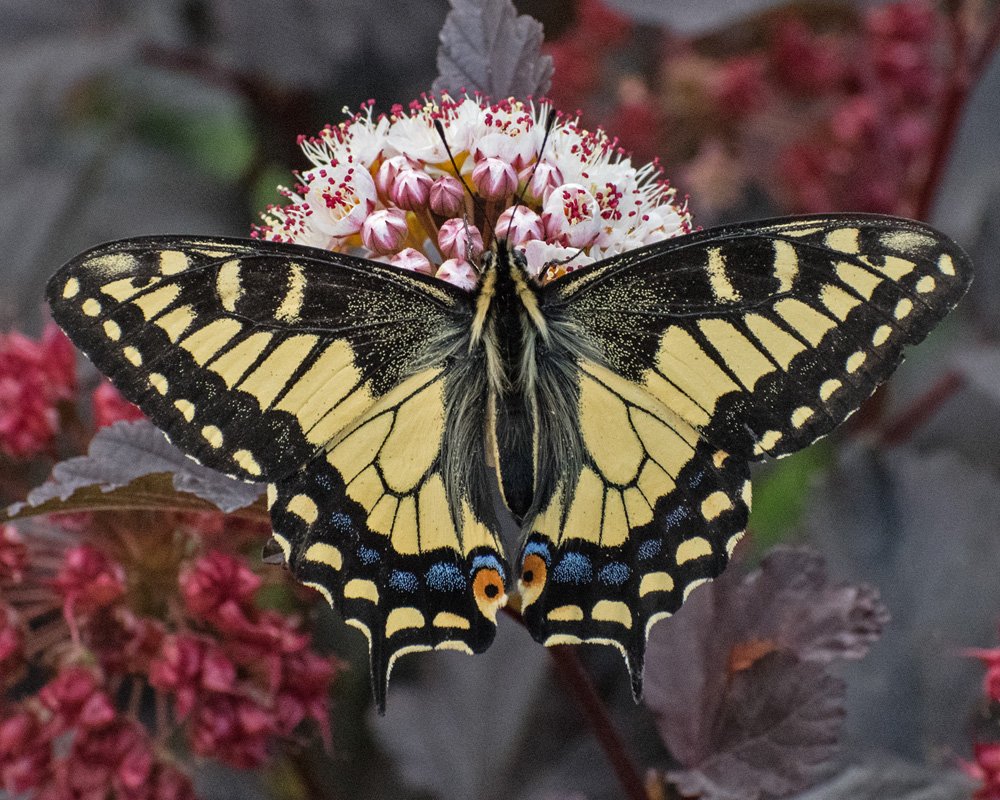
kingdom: Animalia
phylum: Arthropoda
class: Insecta
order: Lepidoptera
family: Papilionidae
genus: Papilio
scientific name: Papilio zelicaon
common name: Anise Swallowtail
